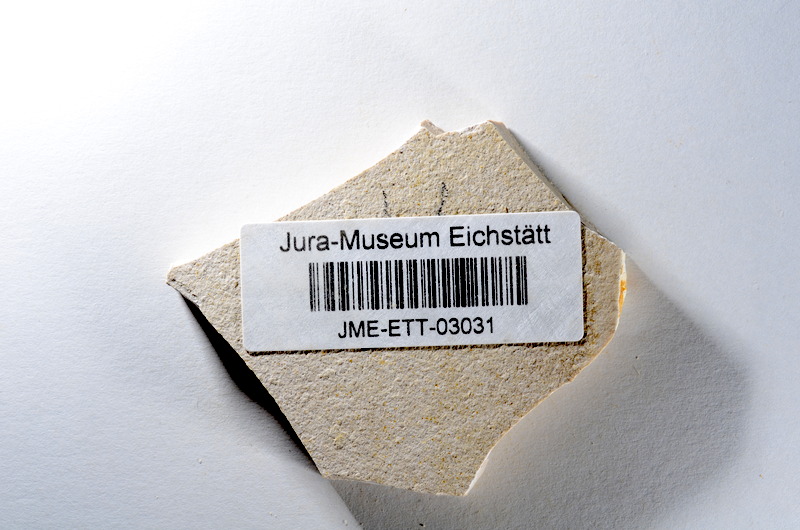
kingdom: Animalia
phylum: Chordata
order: Salmoniformes
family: Orthogonikleithridae
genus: Orthogonikleithrus
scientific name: Orthogonikleithrus hoelli
